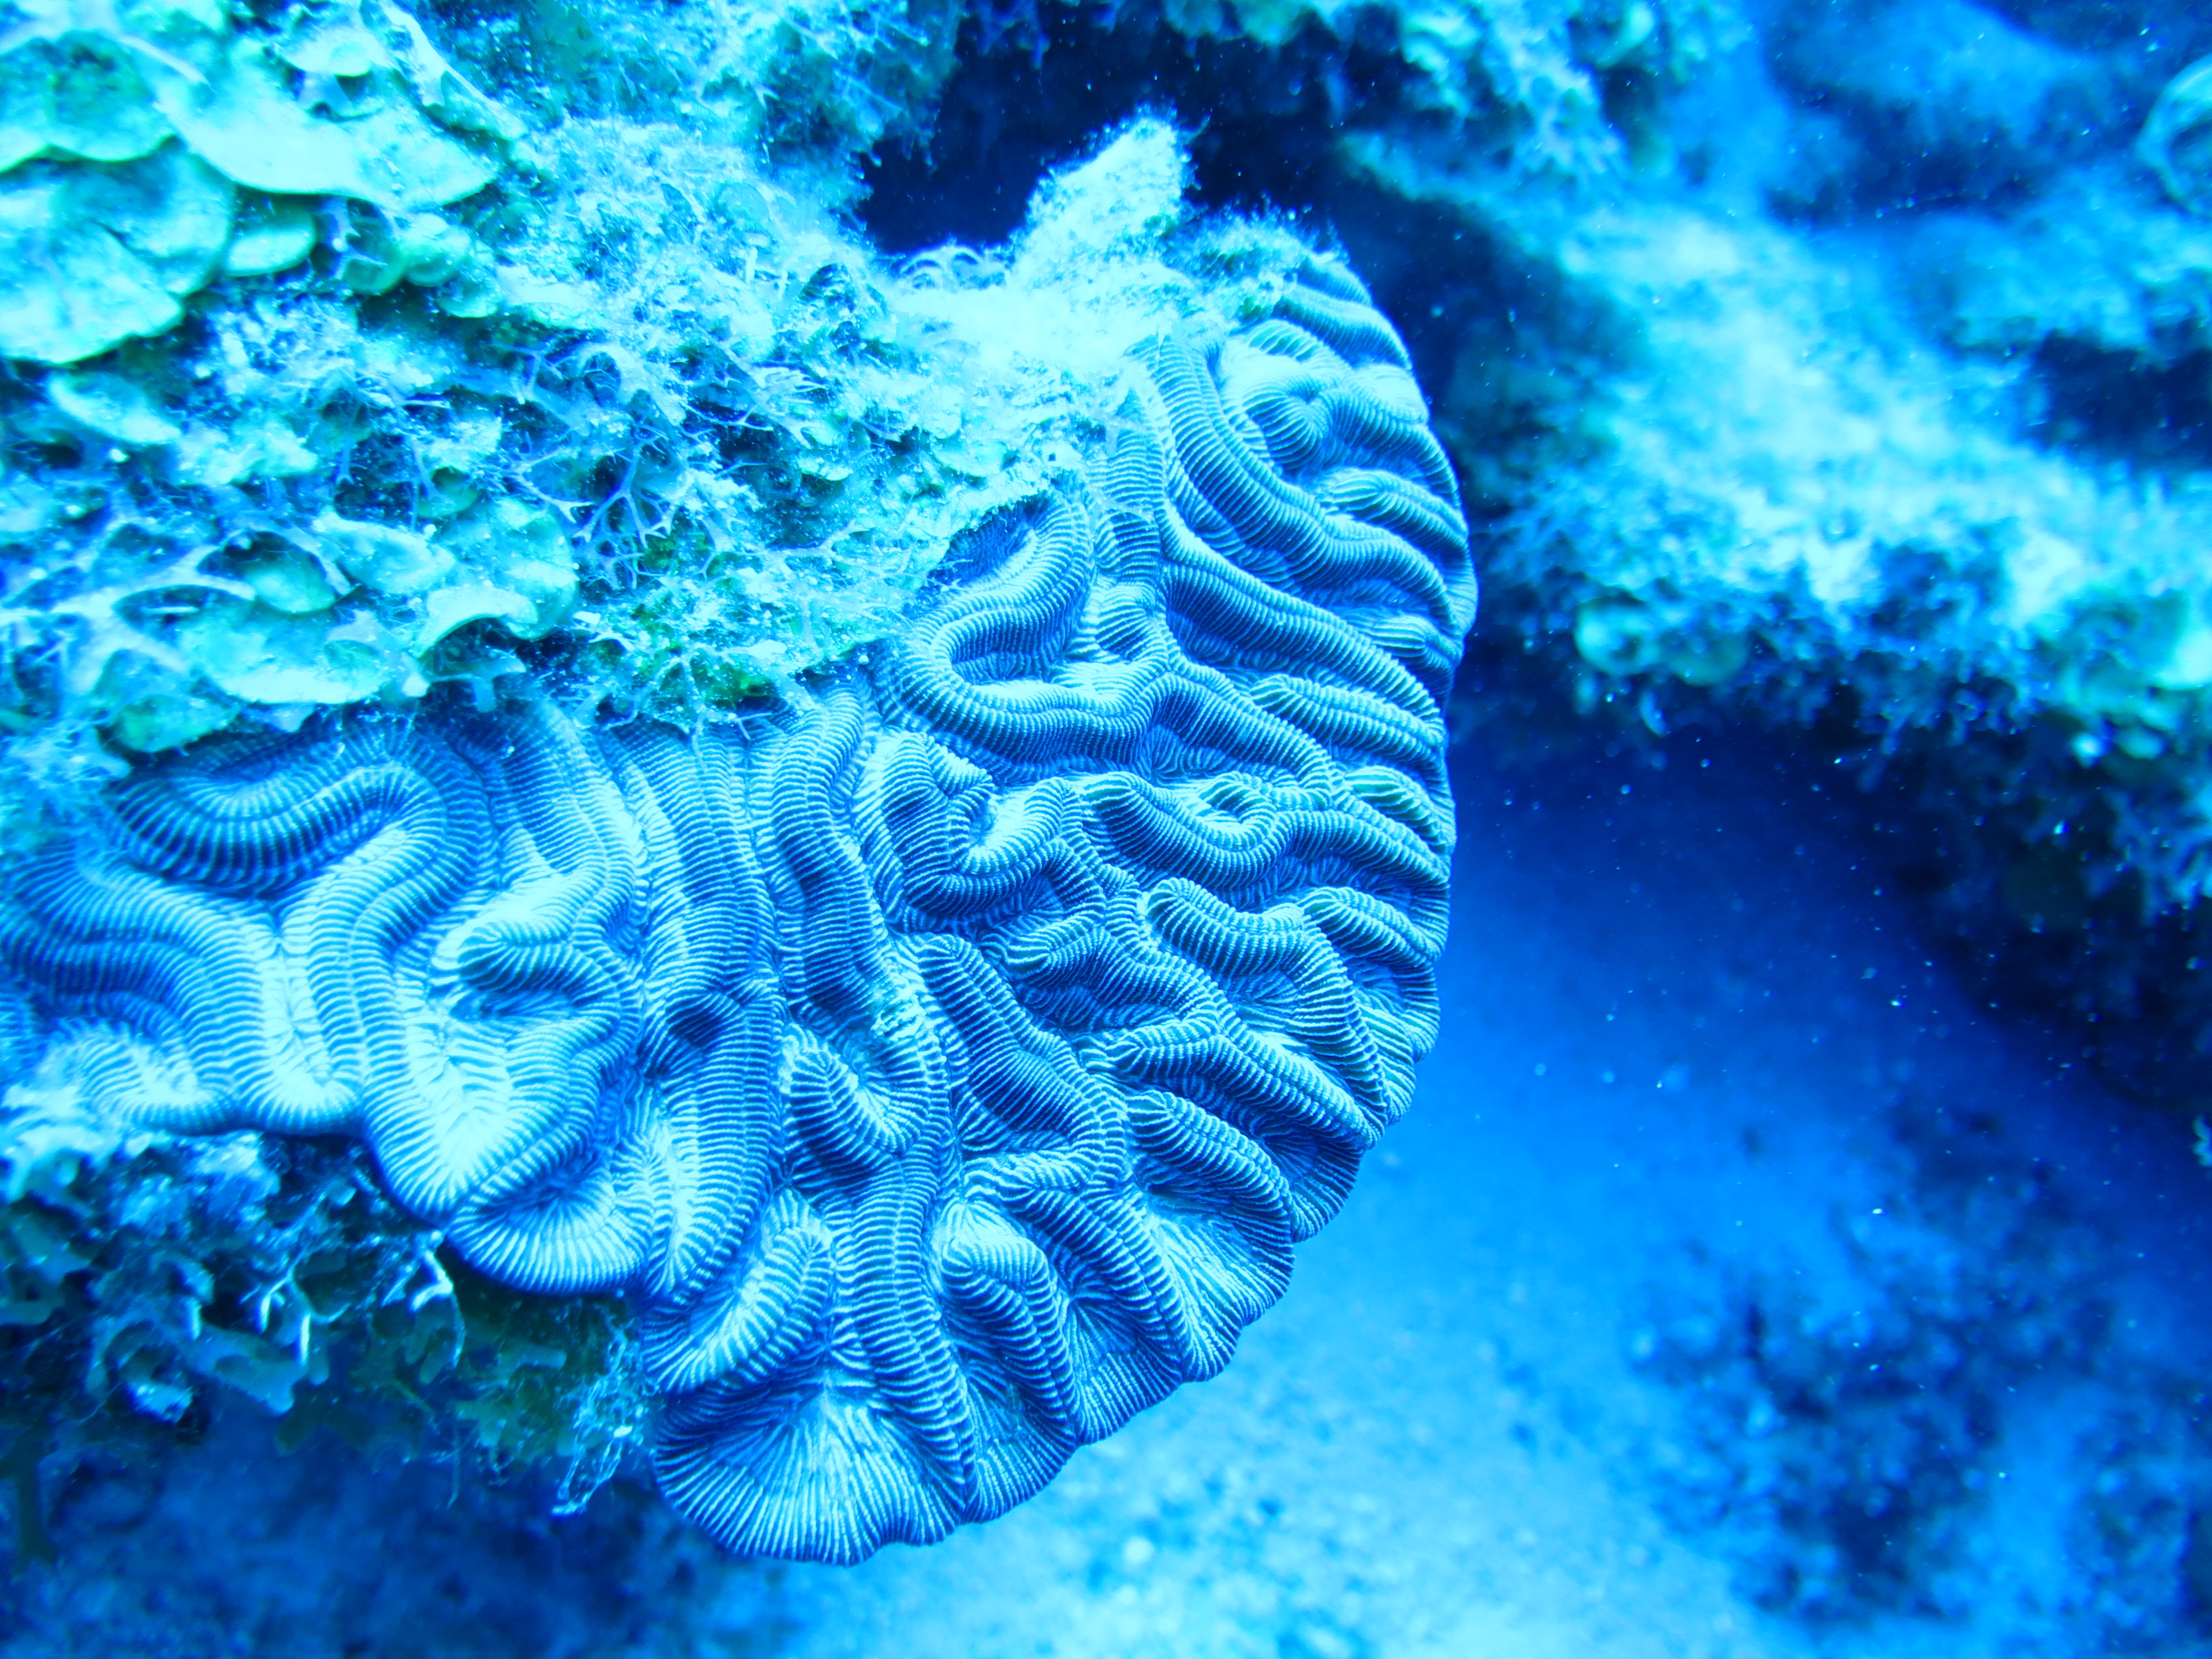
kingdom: Animalia
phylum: Cnidaria
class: Anthozoa
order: Scleractinia
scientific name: Scleractinia
